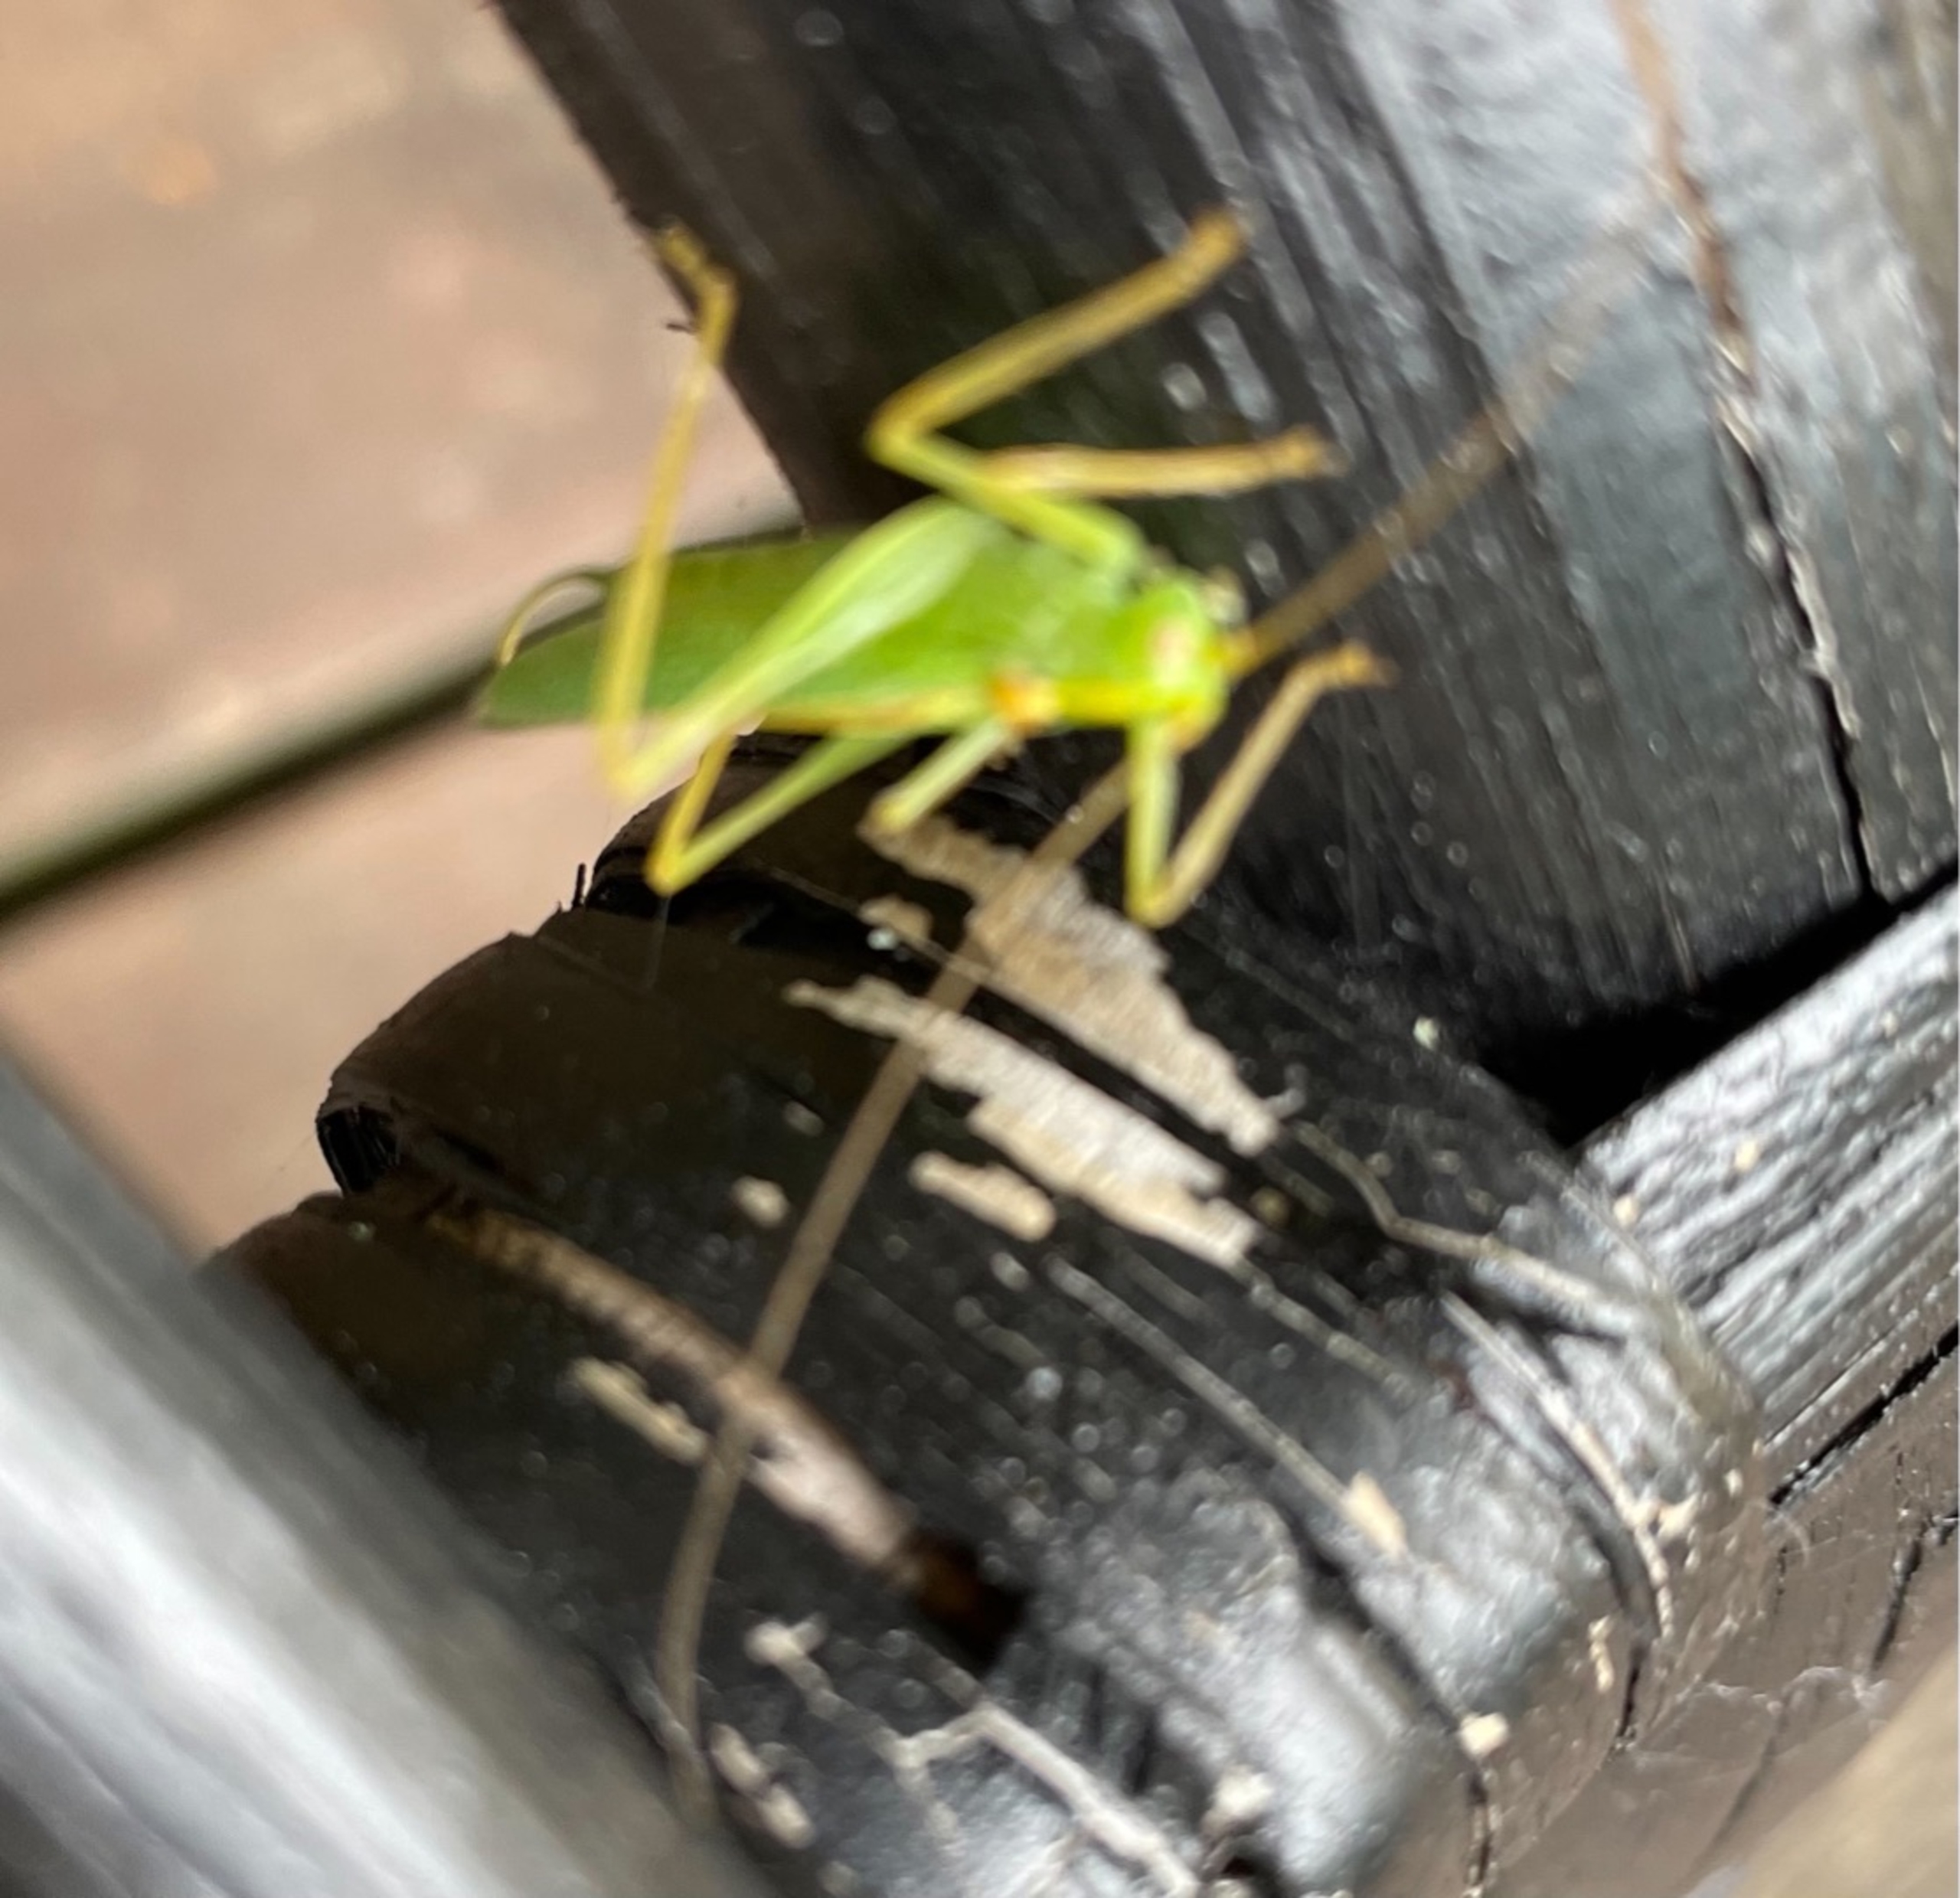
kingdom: Animalia
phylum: Arthropoda
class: Insecta
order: Orthoptera
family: Tettigoniidae
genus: Meconema
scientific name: Meconema thalassinum
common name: Egegræshoppe
